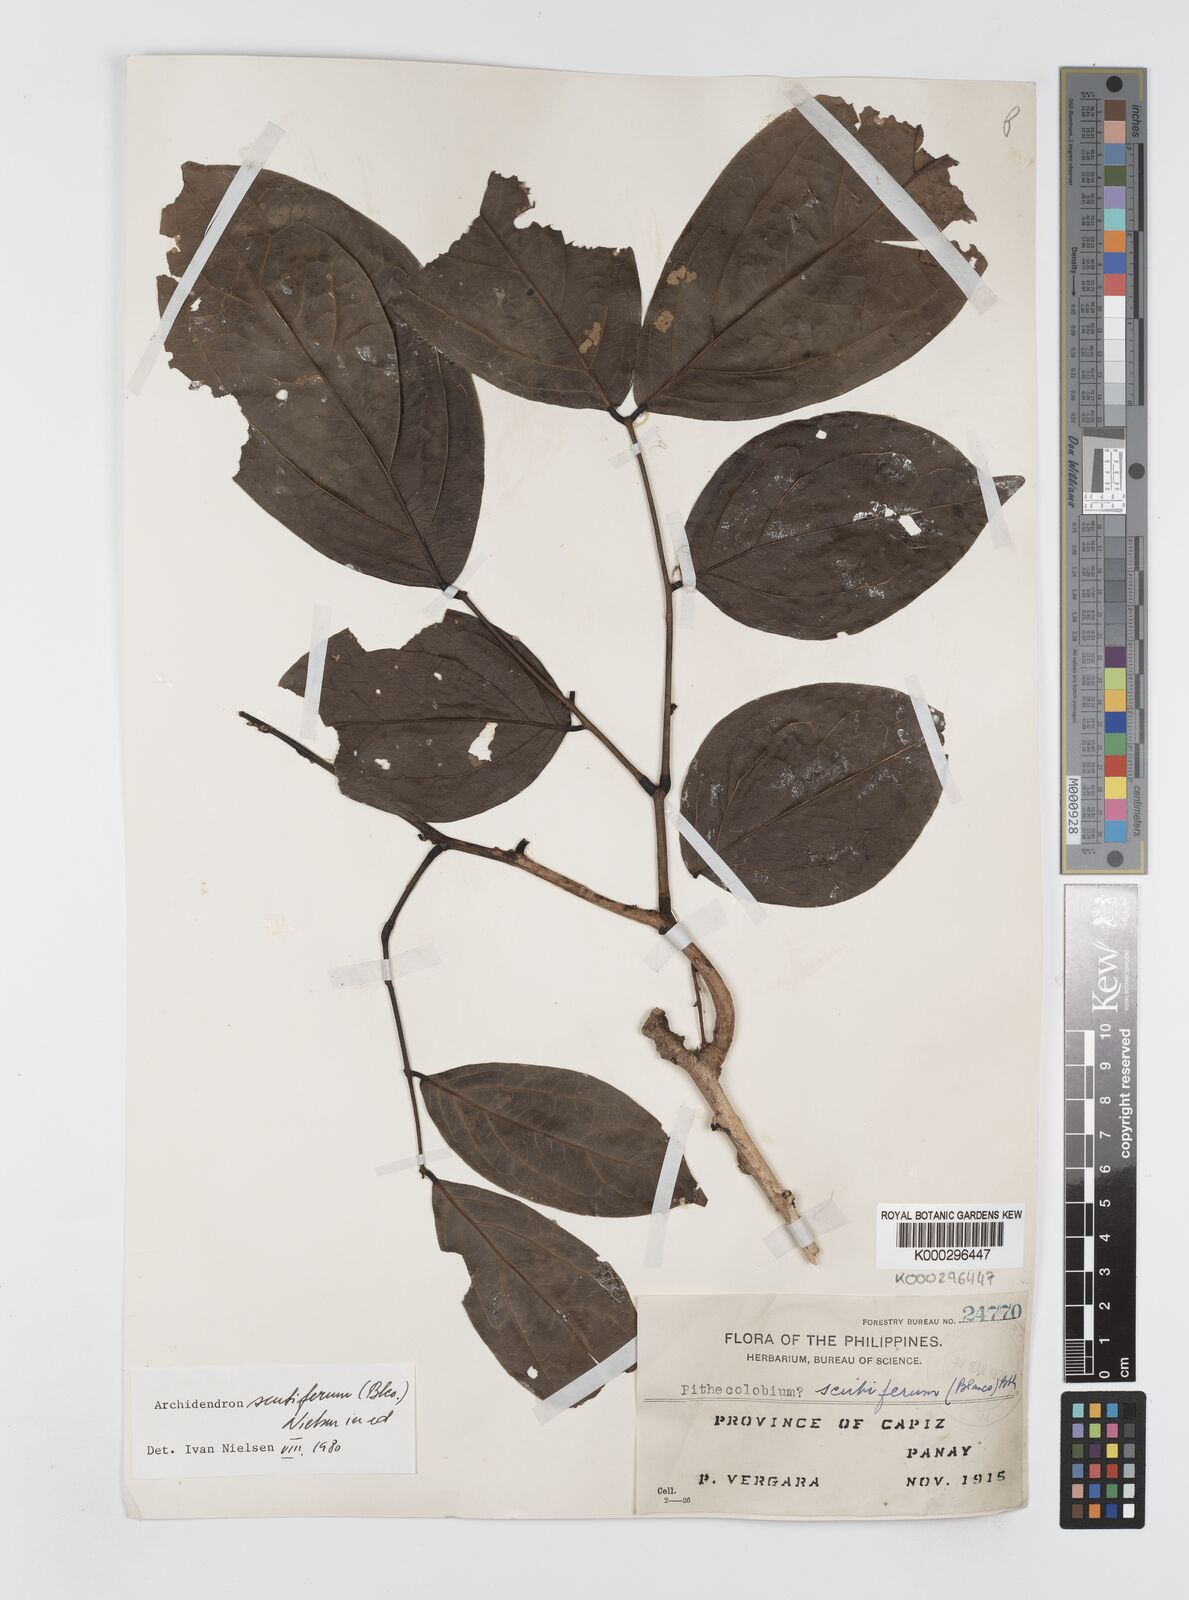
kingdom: Plantae
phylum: Tracheophyta
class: Magnoliopsida
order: Fabales
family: Fabaceae
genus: Archidendron
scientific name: Archidendron scutiferum
